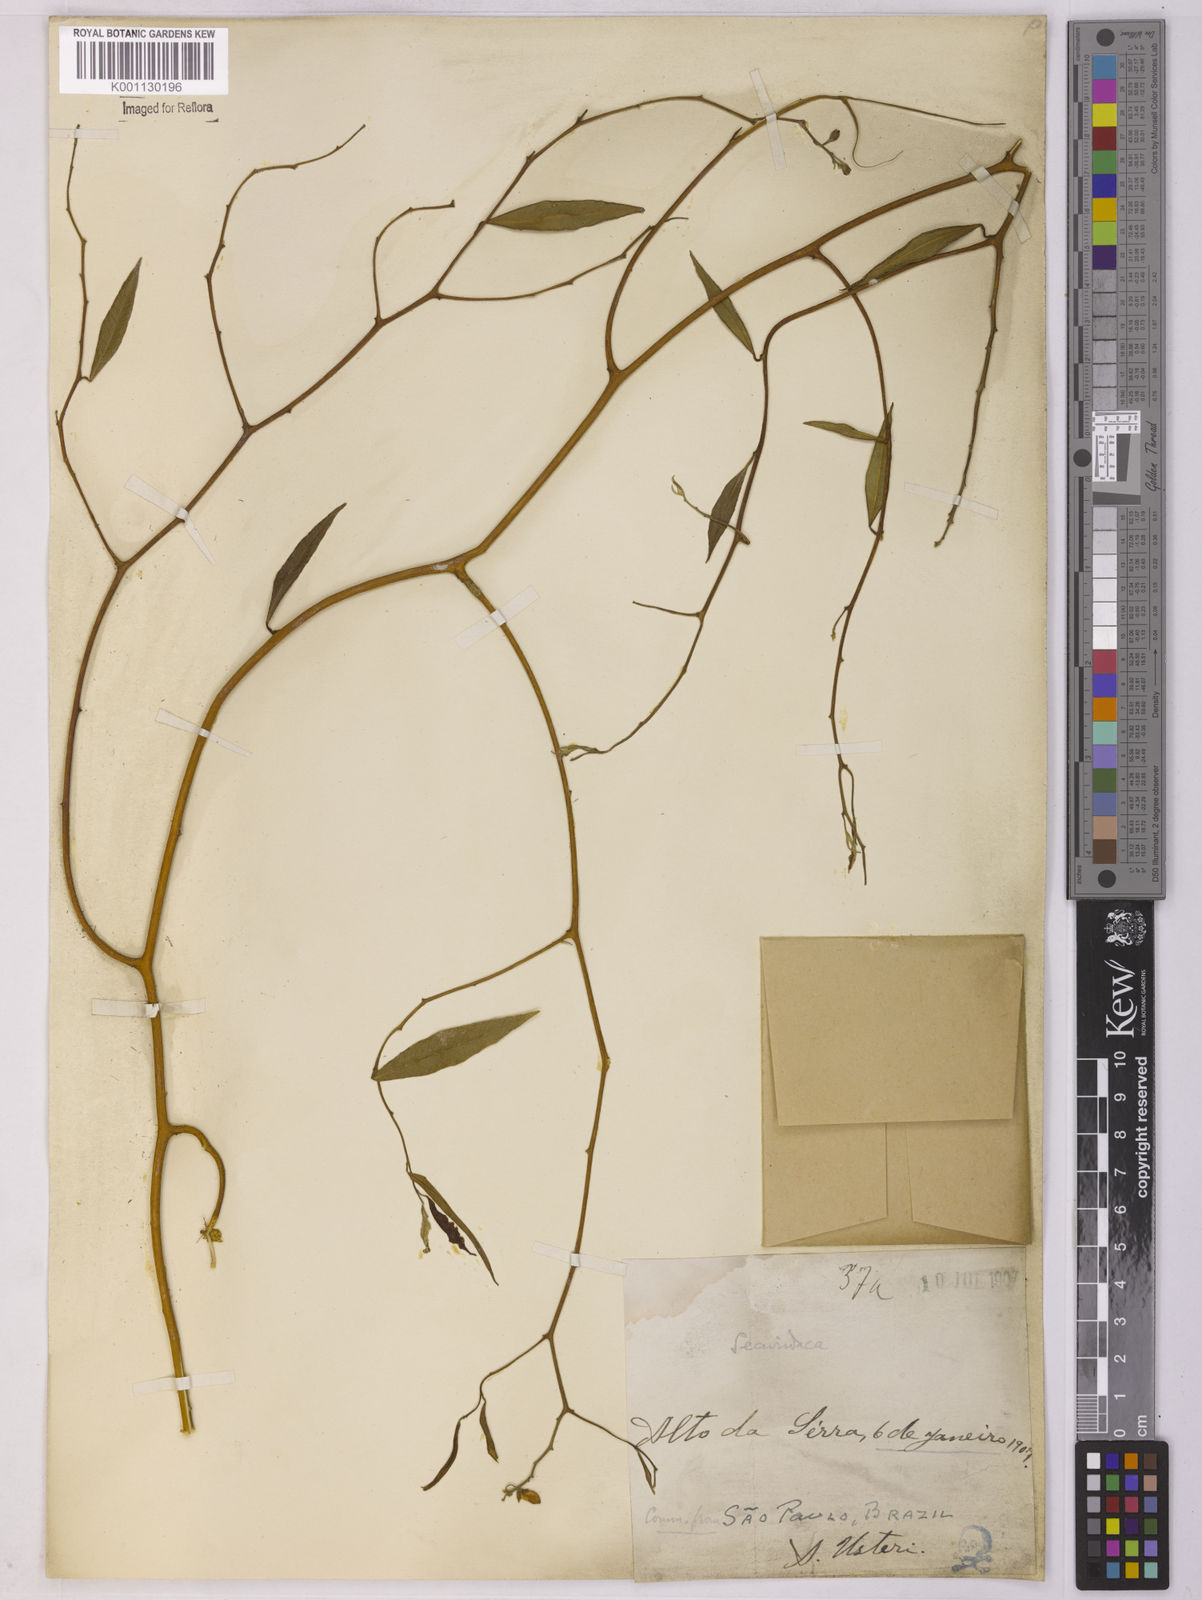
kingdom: Plantae
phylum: Tracheophyta
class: Magnoliopsida
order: Fabales
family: Polygalaceae
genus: Securidaca
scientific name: Securidaca
